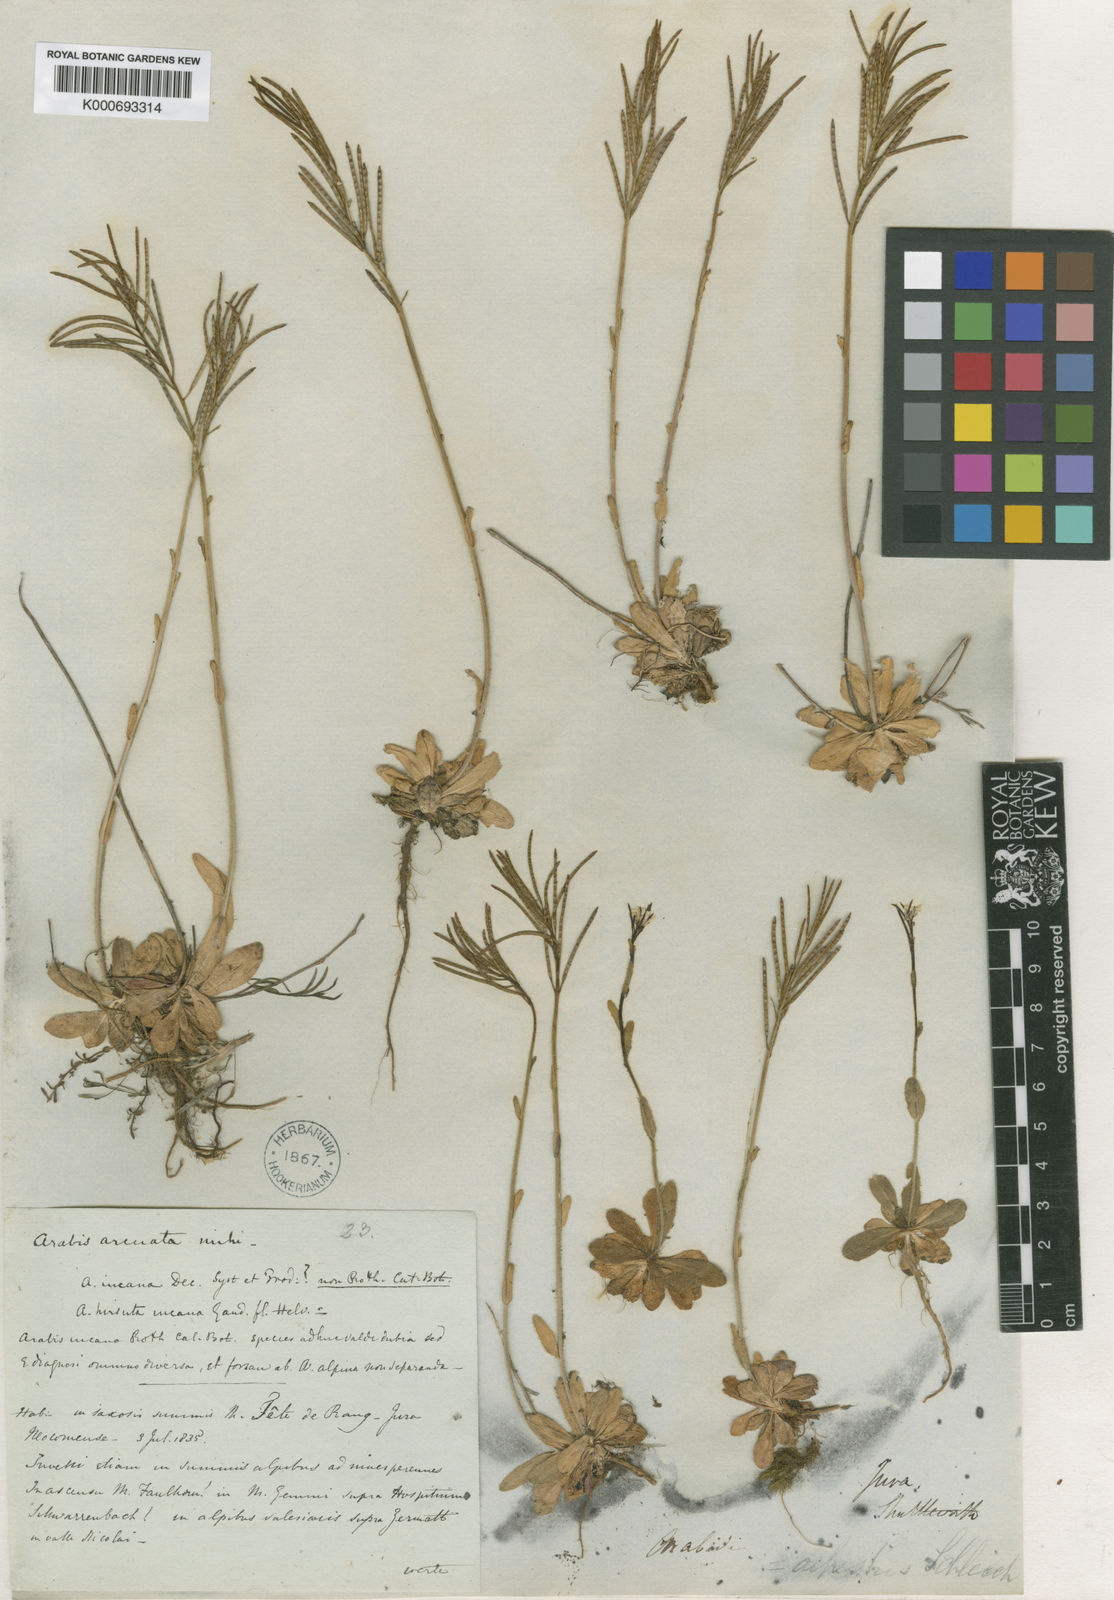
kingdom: Plantae
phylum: Tracheophyta
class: Magnoliopsida
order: Brassicales
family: Brassicaceae
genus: Arabis
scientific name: Arabis ciliata
